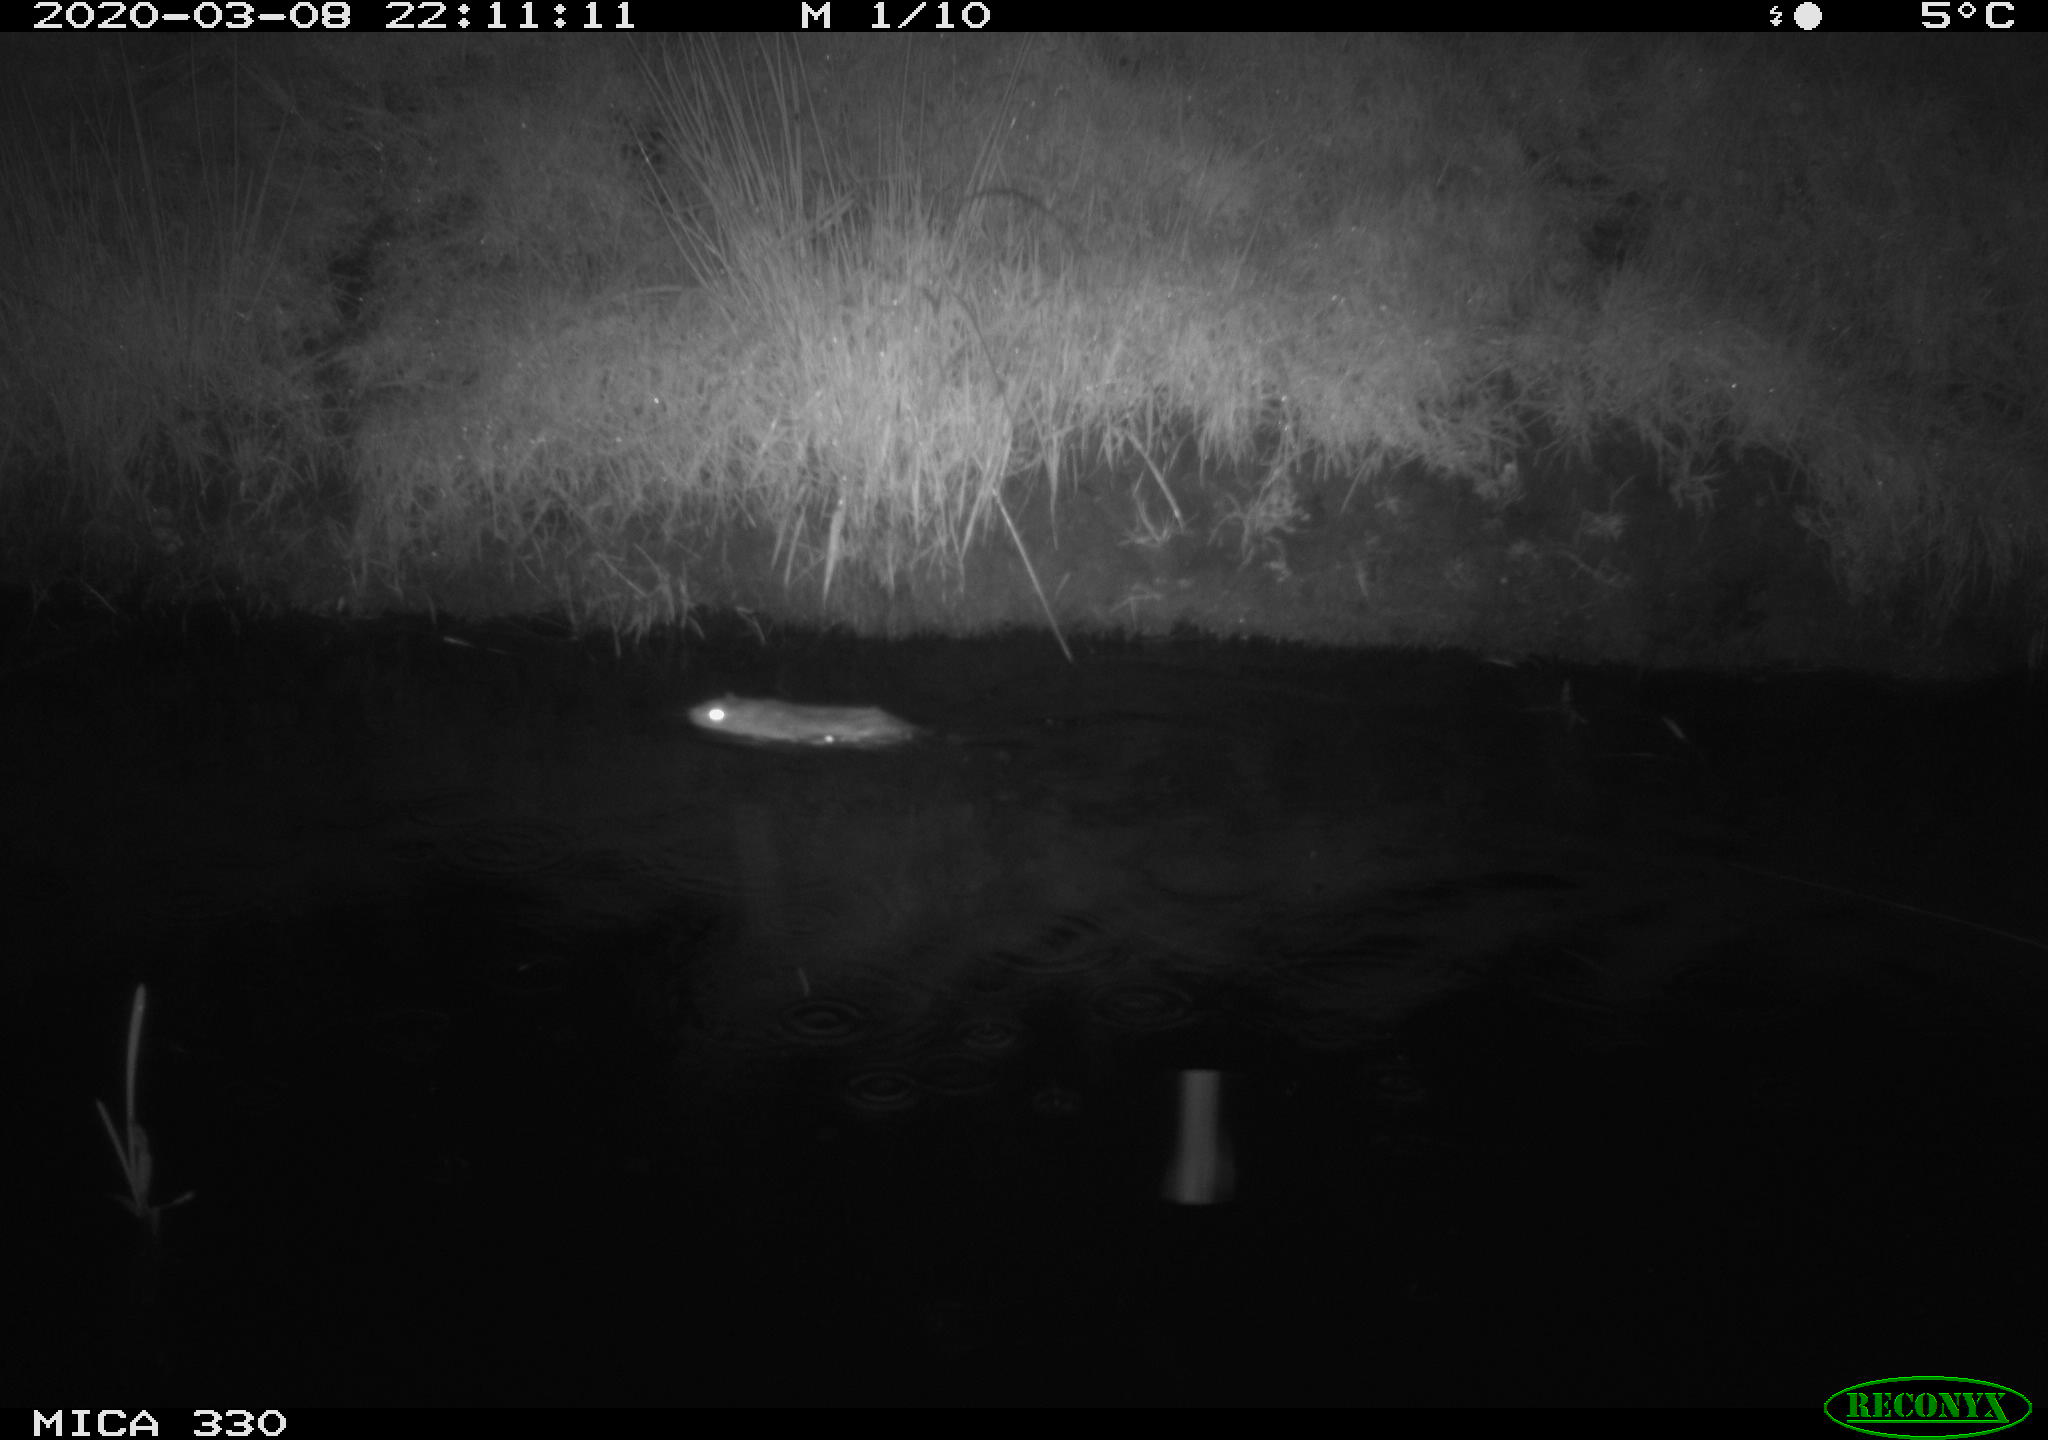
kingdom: Animalia
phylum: Chordata
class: Mammalia
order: Rodentia
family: Muridae
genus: Rattus
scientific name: Rattus norvegicus
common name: Brown rat
